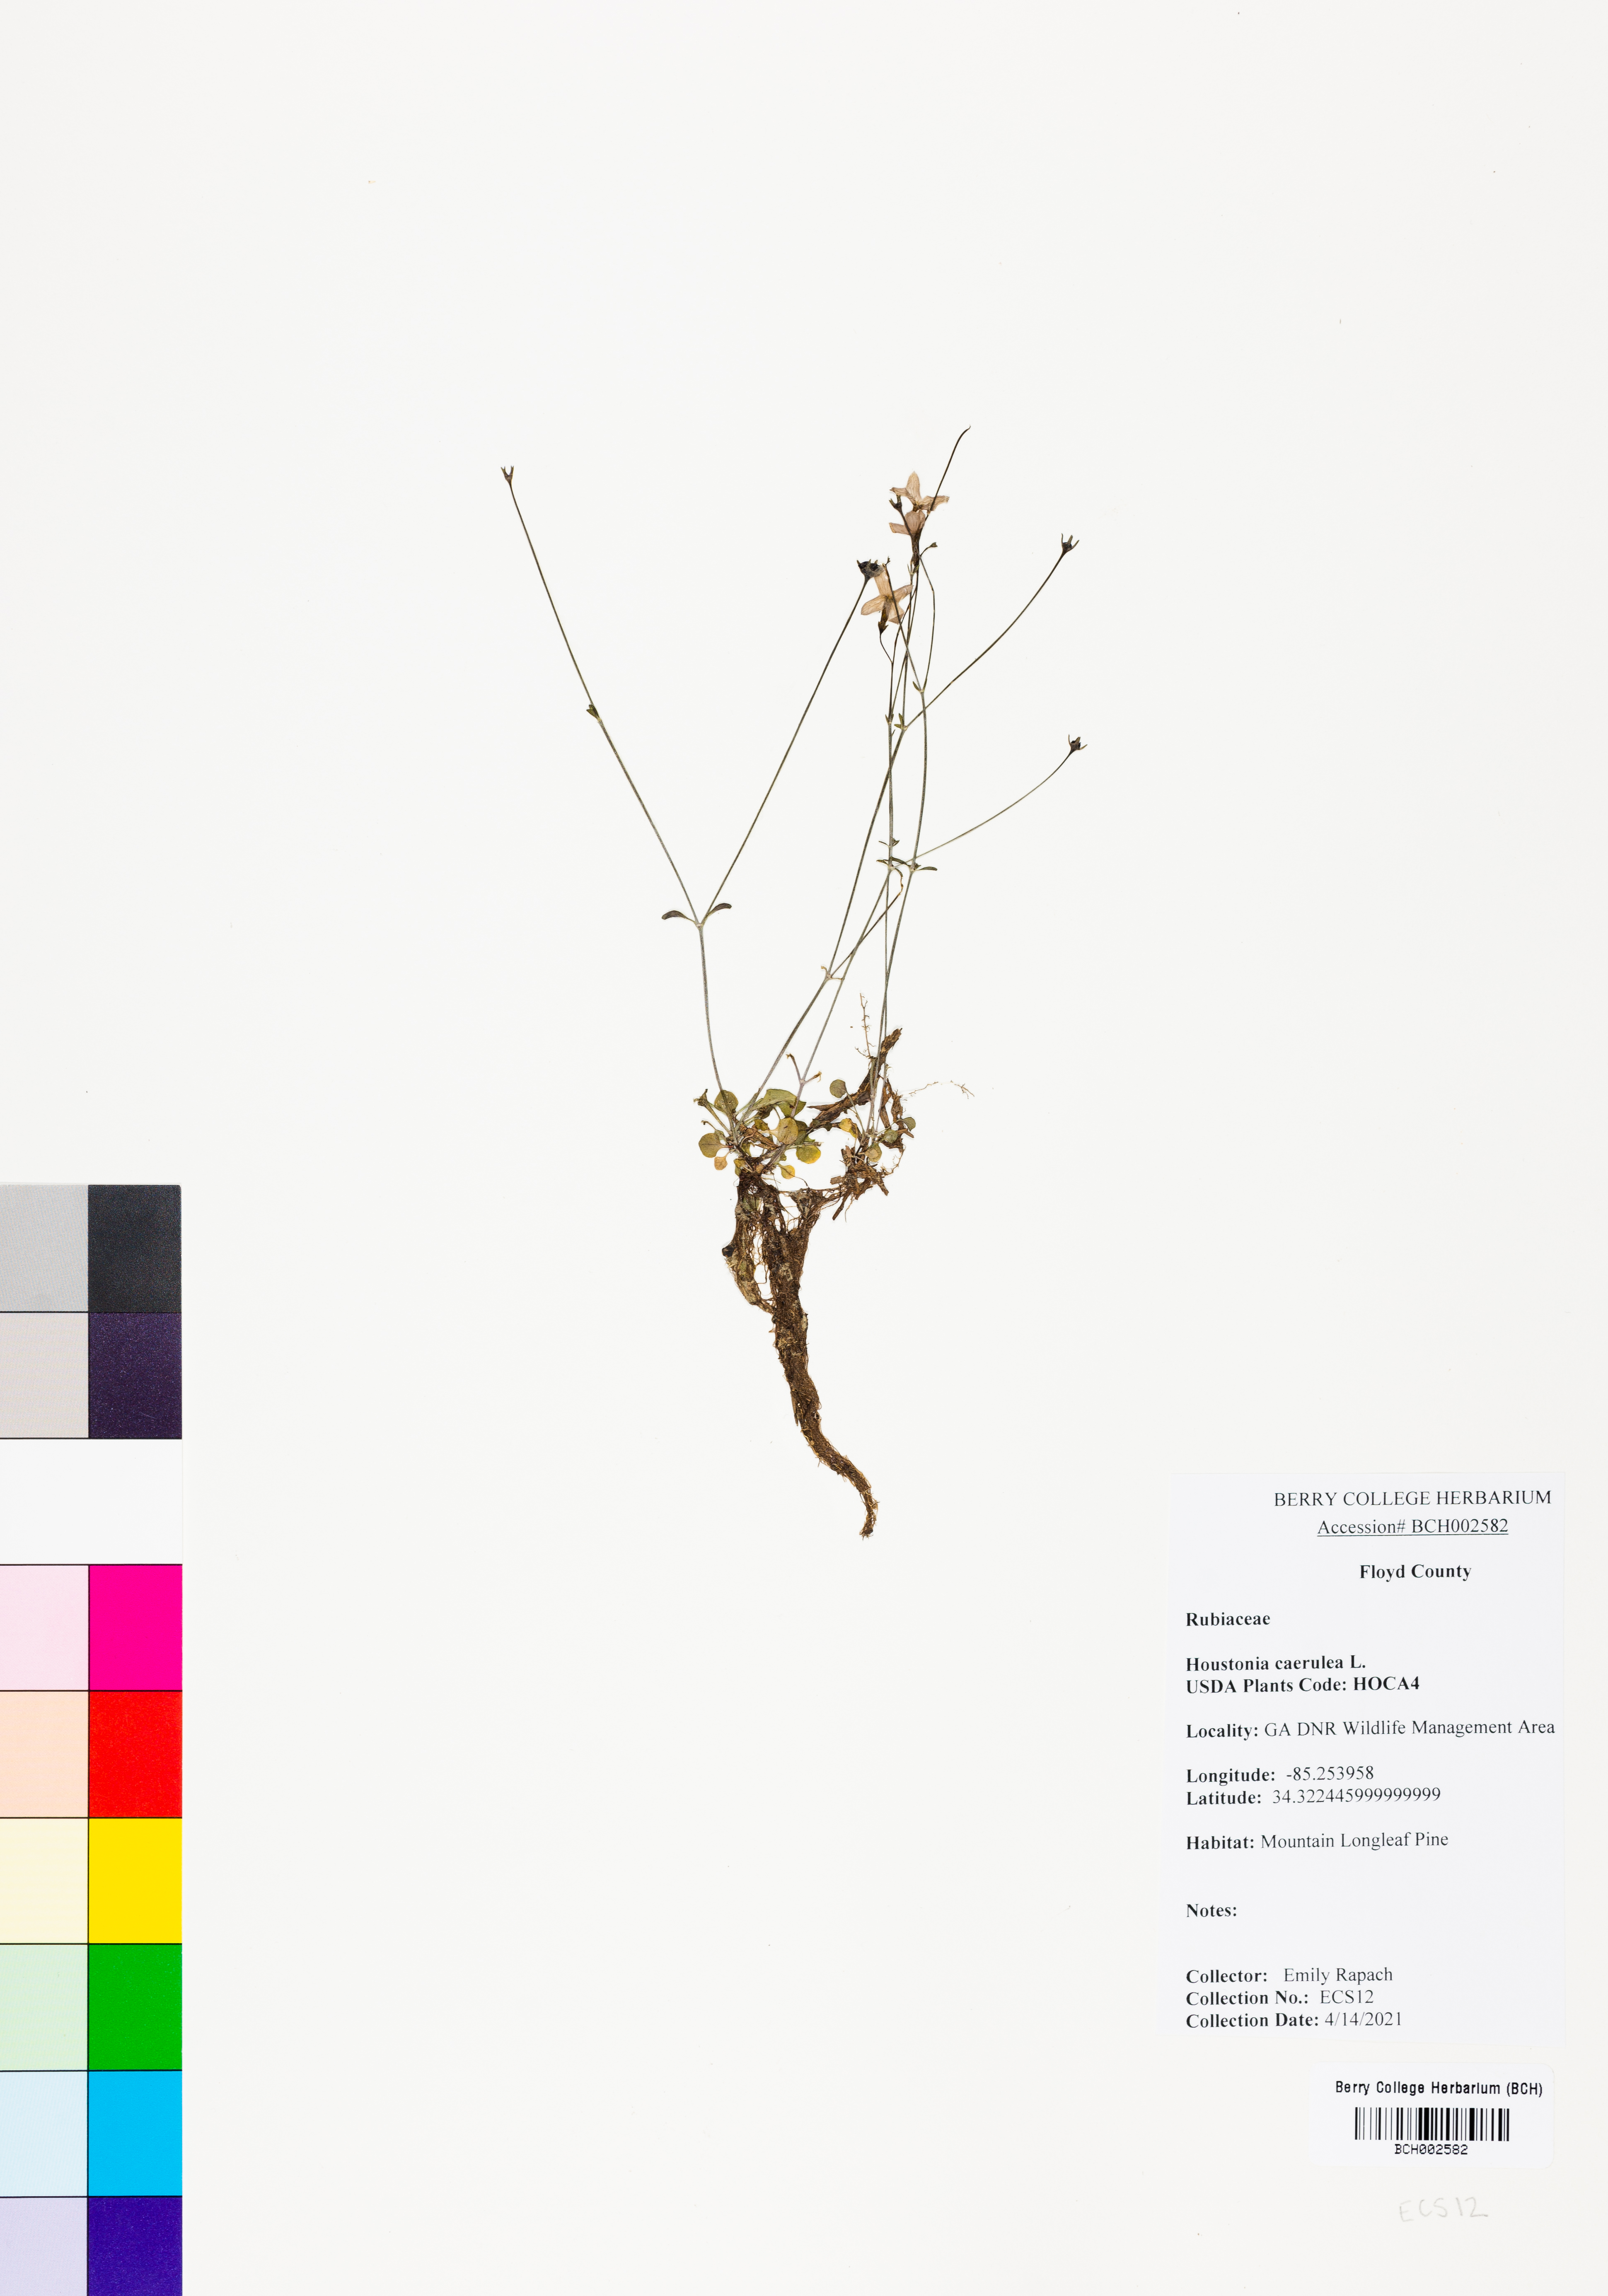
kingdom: Plantae
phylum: Tracheophyta
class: Magnoliopsida
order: Gentianales
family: Rubiaceae
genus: Houstonia
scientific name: Houstonia caerulea
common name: Bluets
